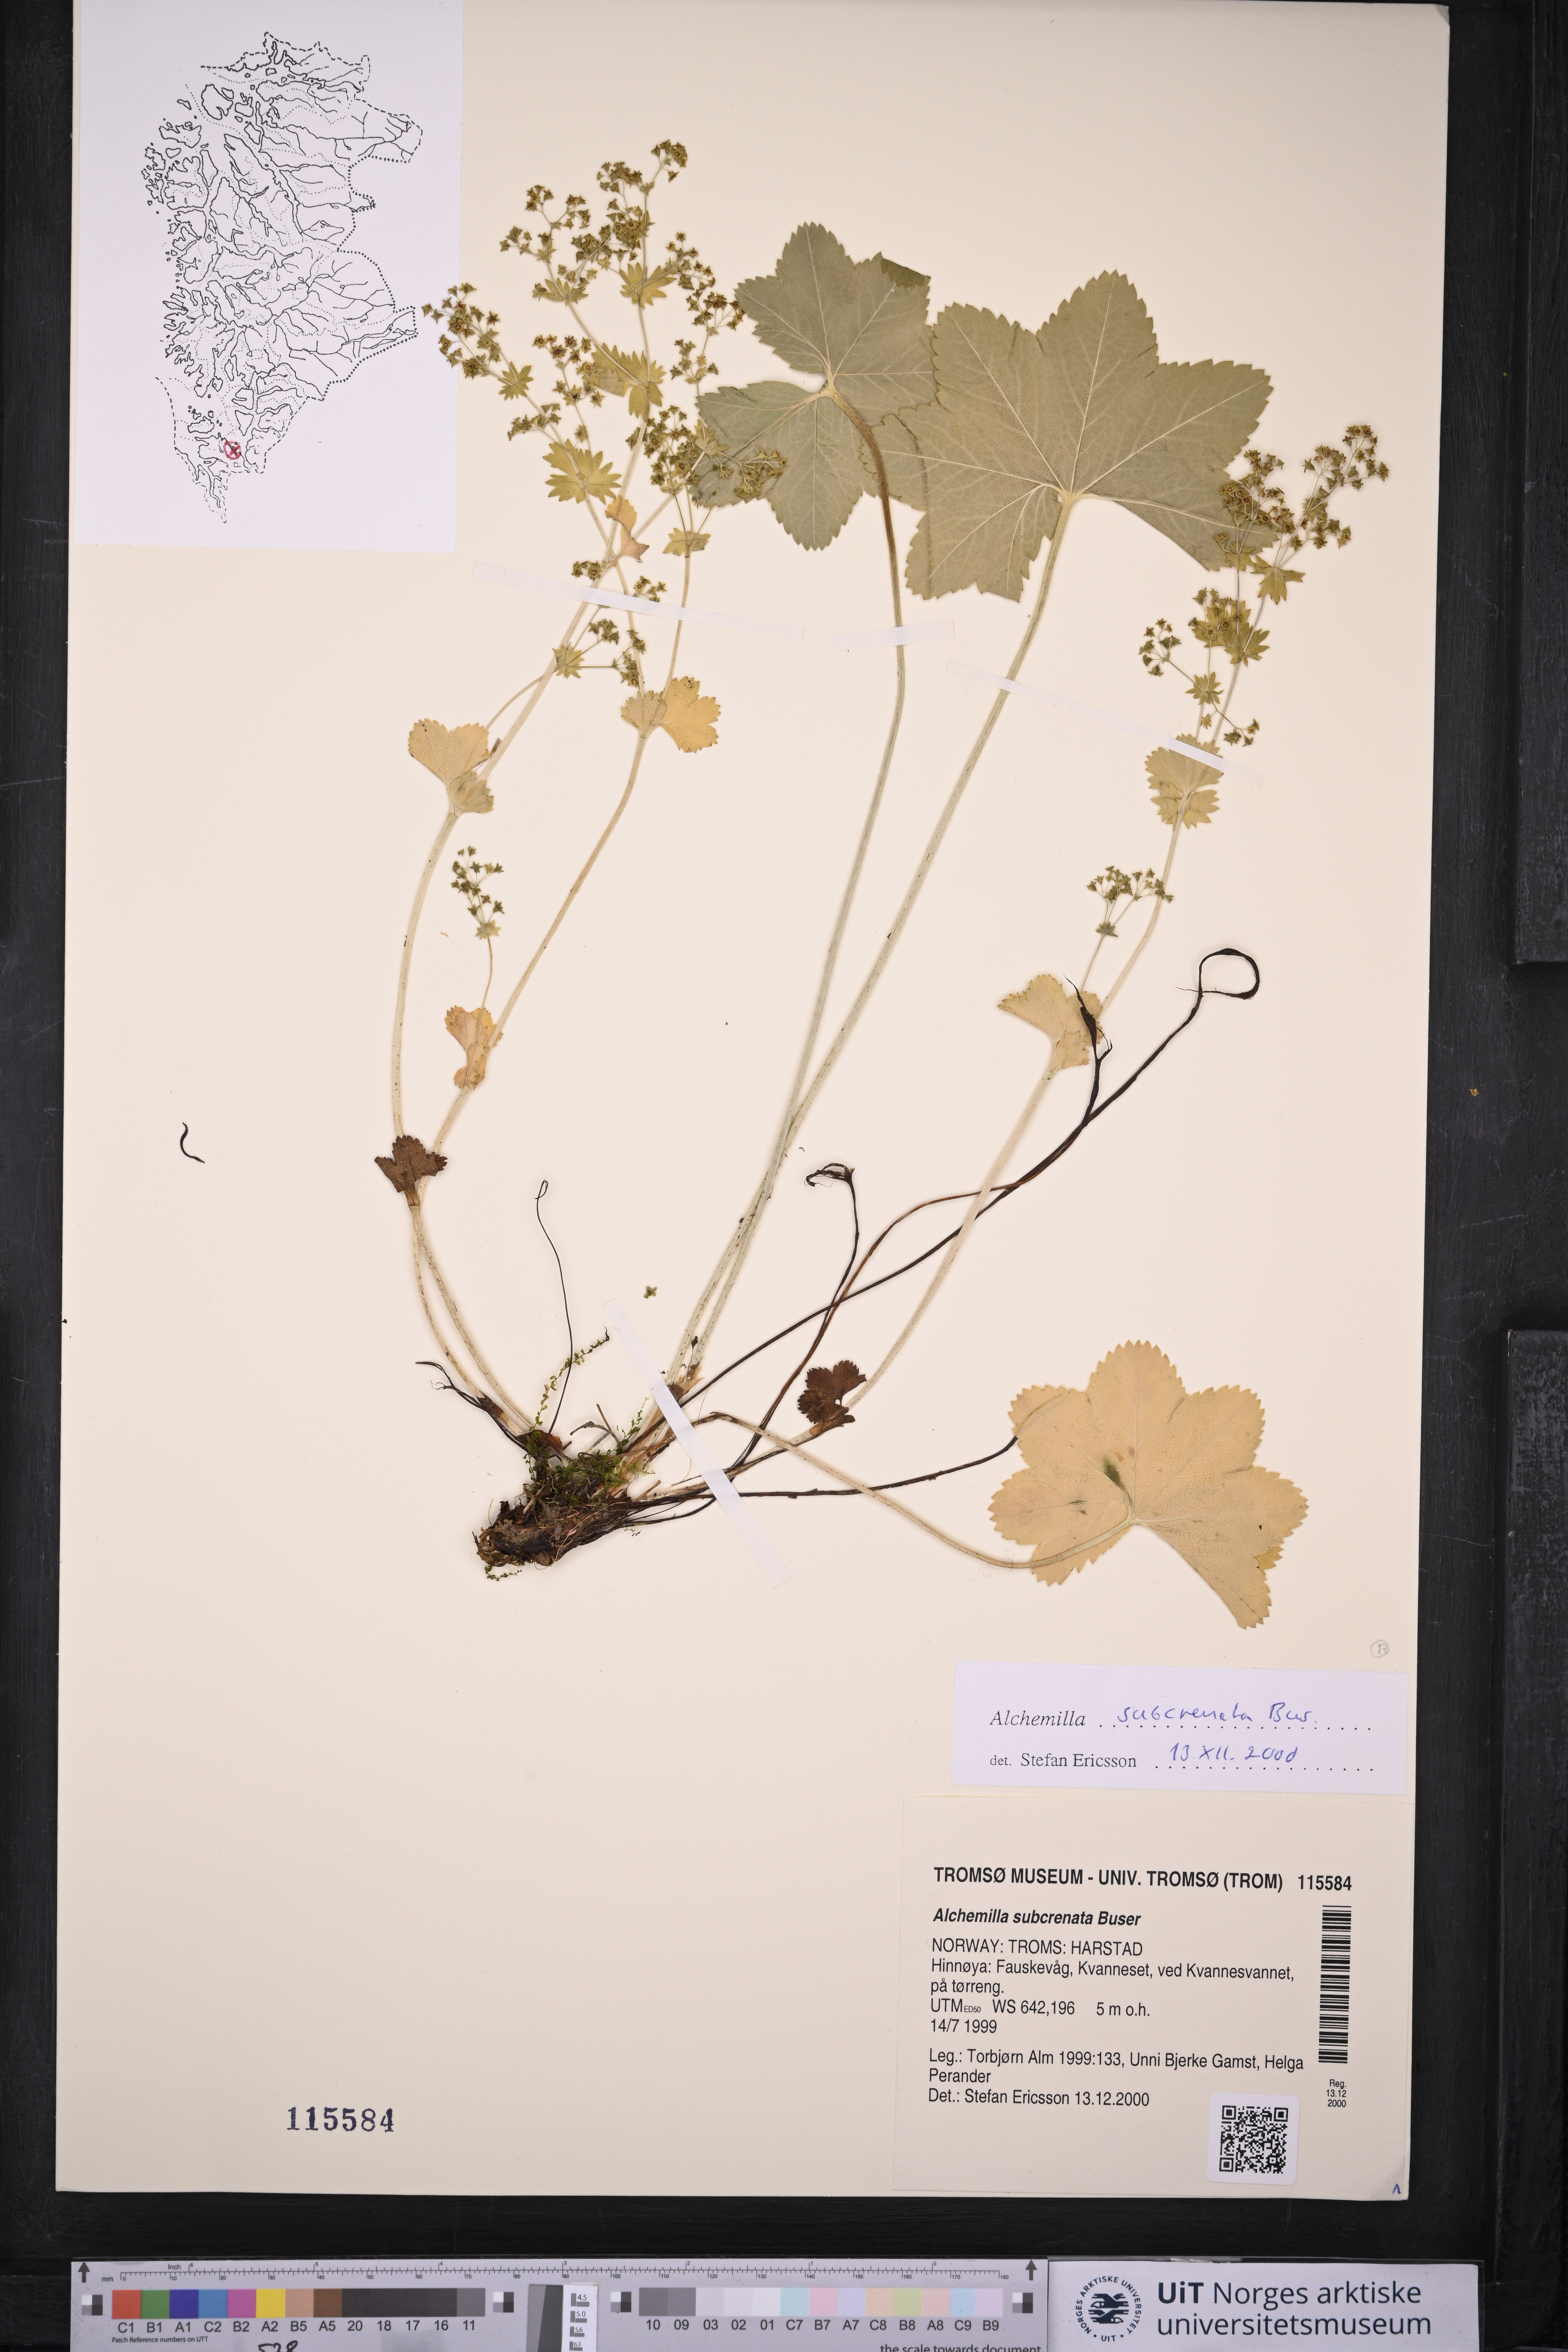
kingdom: Plantae
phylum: Tracheophyta
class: Magnoliopsida
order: Rosales
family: Rosaceae
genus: Alchemilla
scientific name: Alchemilla subcrenata
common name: Broadtooth lady's mantle
